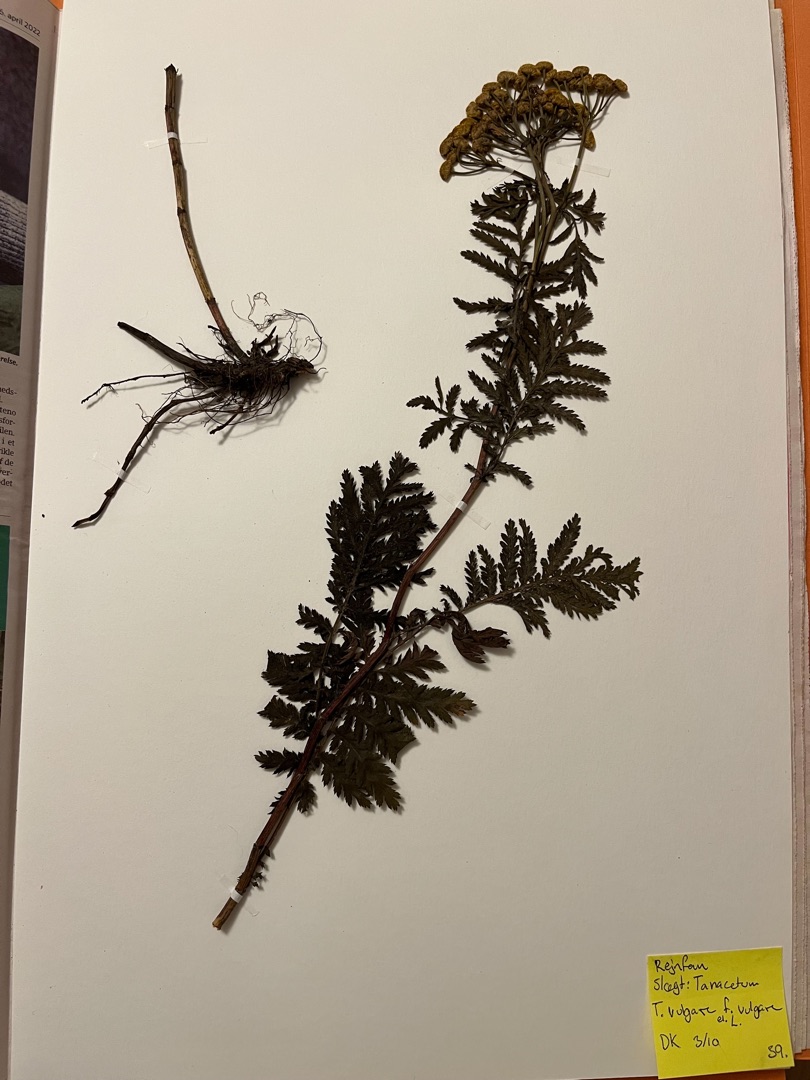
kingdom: Plantae
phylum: Tracheophyta
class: Magnoliopsida
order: Asterales
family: Asteraceae
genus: Tanacetum
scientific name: Tanacetum vulgare
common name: Rejnfan
